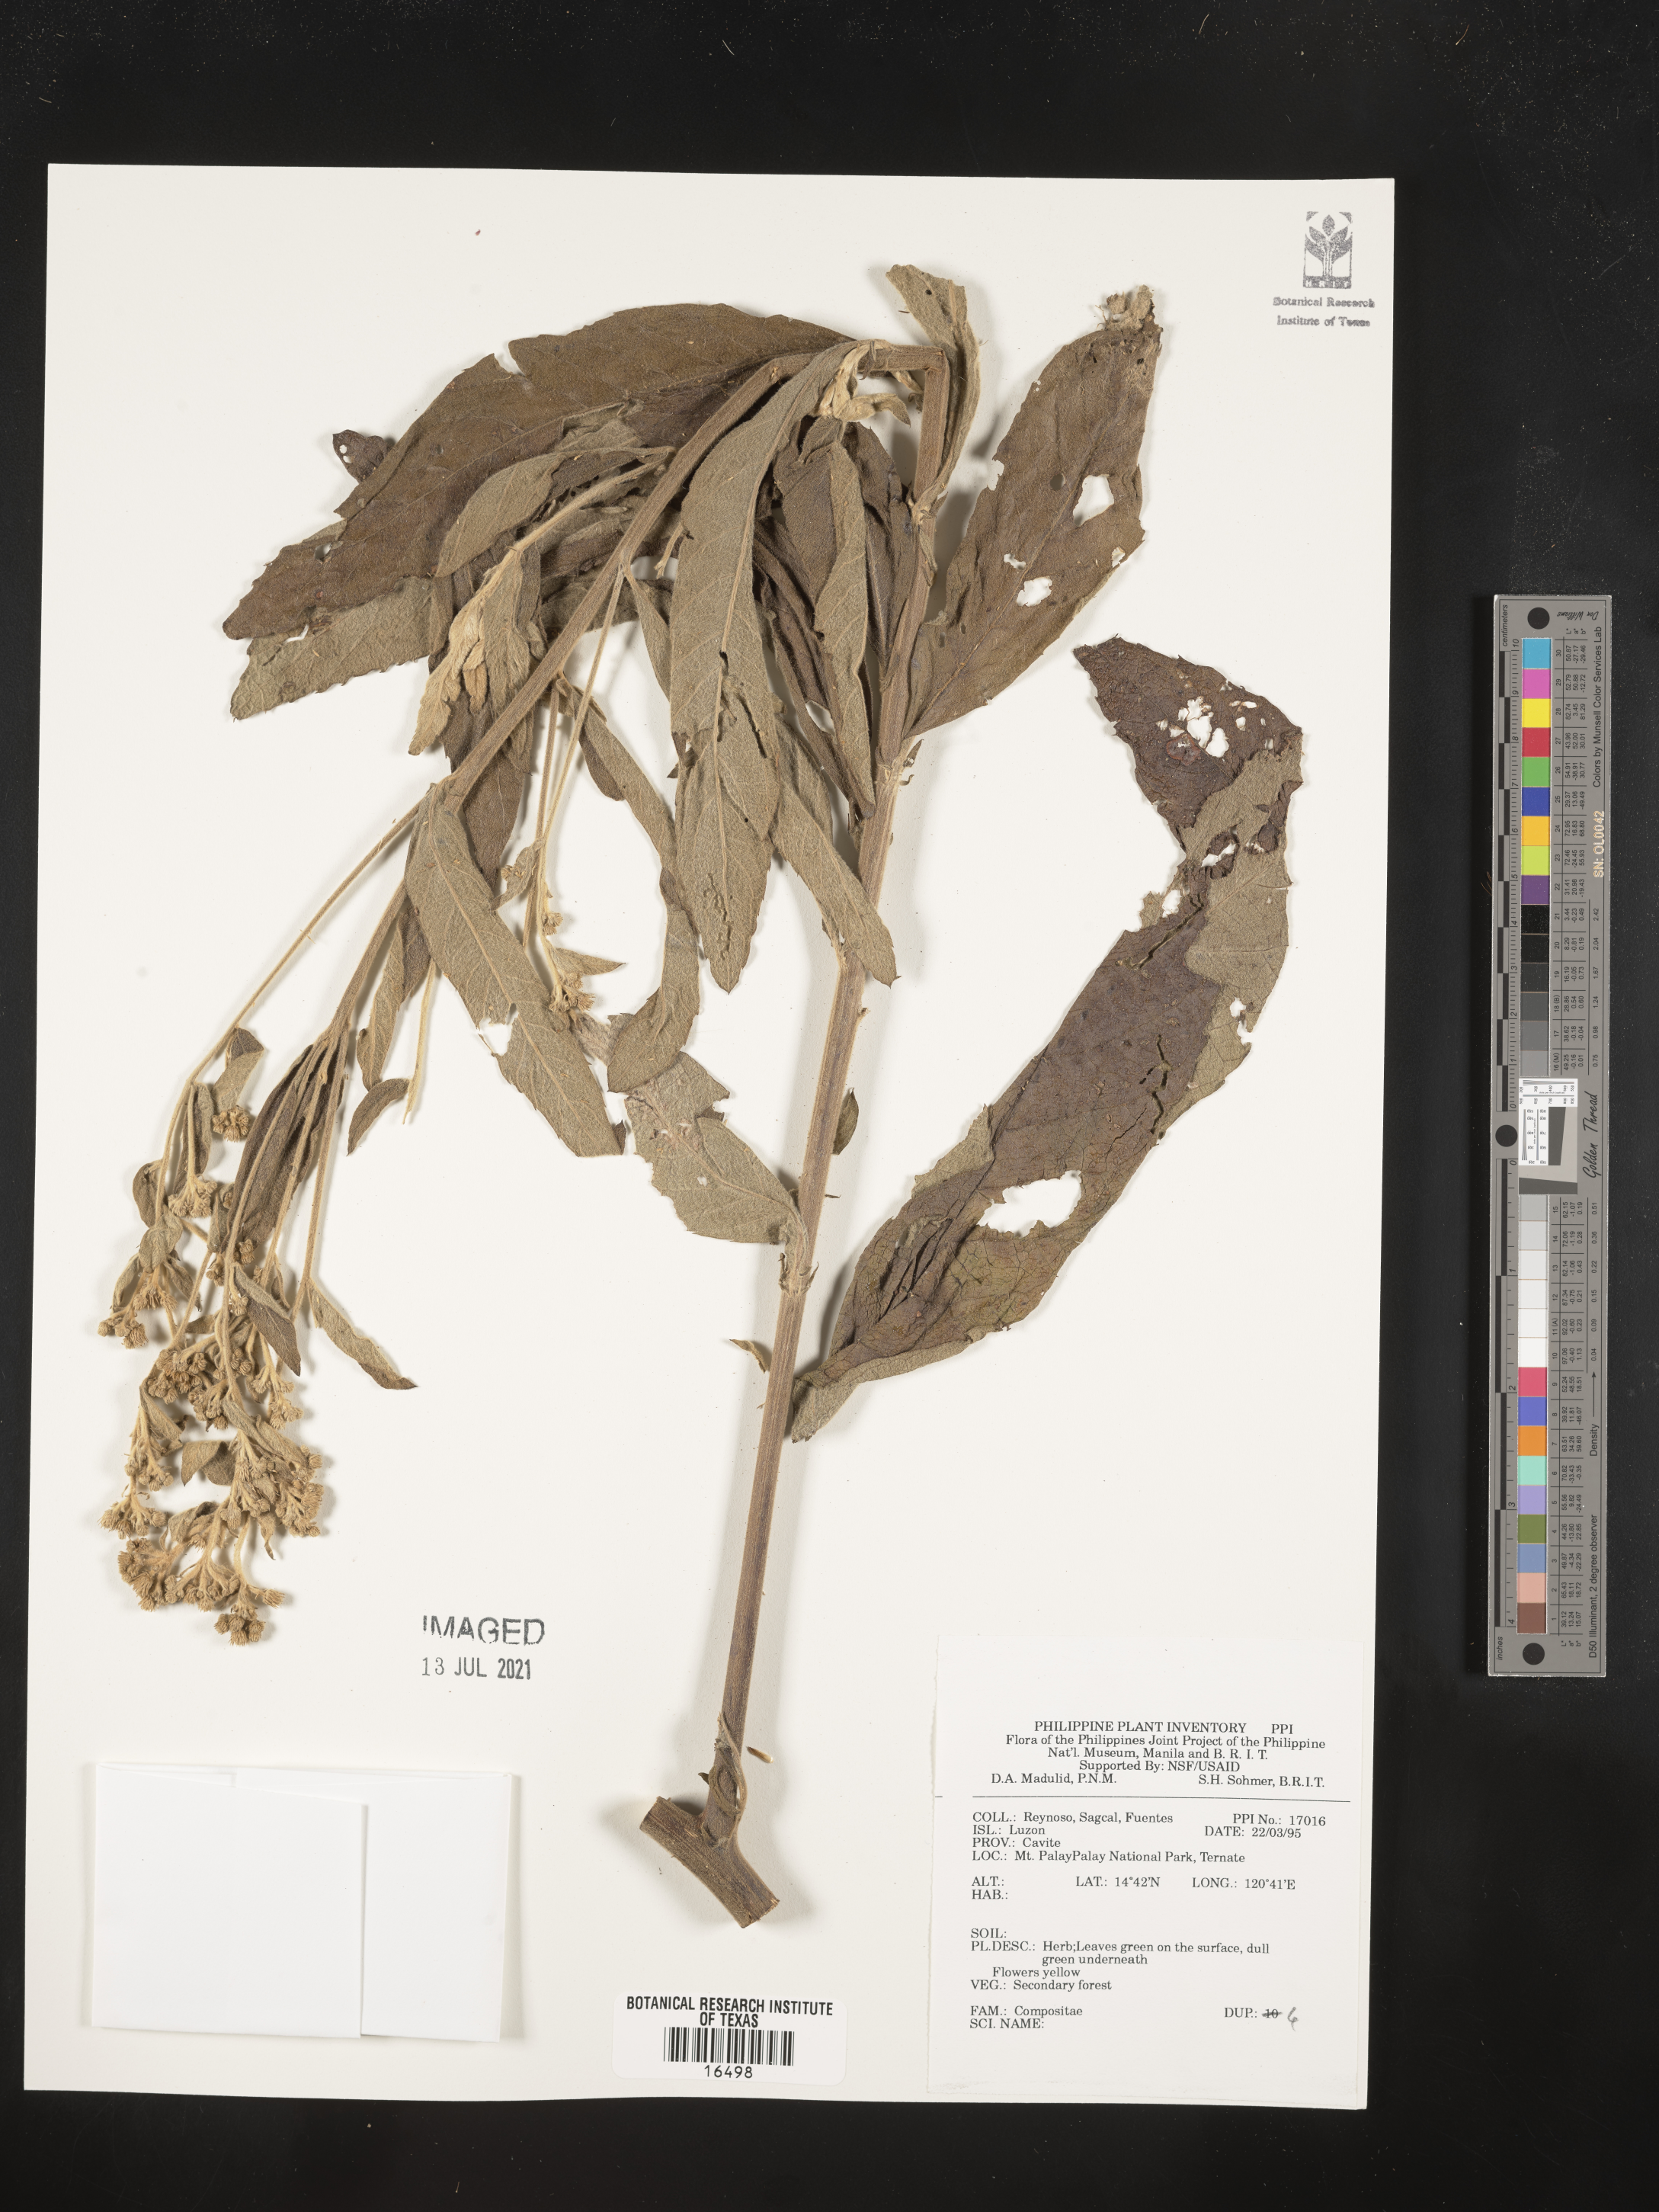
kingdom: Plantae
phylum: Tracheophyta
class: Magnoliopsida
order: Asterales
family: Asteraceae
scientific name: Asteraceae
